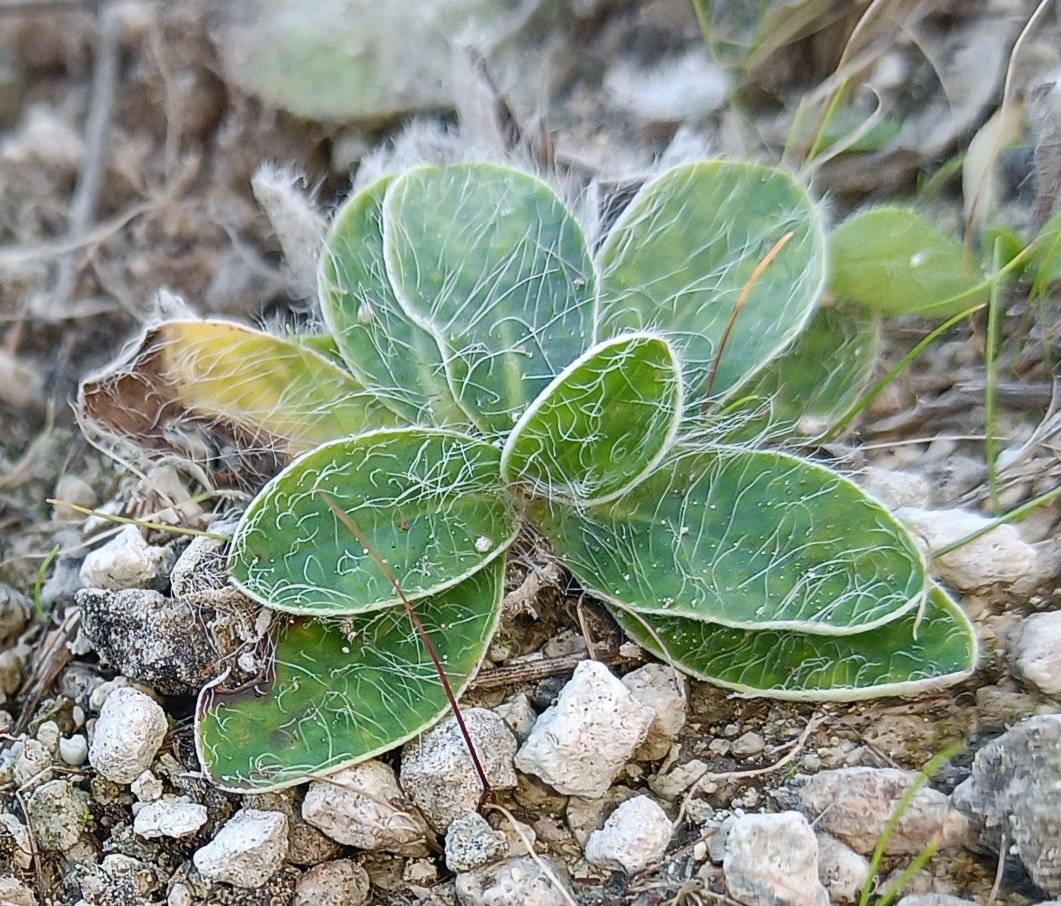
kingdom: Plantae
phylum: Tracheophyta
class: Magnoliopsida
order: Asterales
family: Asteraceae
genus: Pilosella
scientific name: Pilosella officinarum
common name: Håret høgeurt
